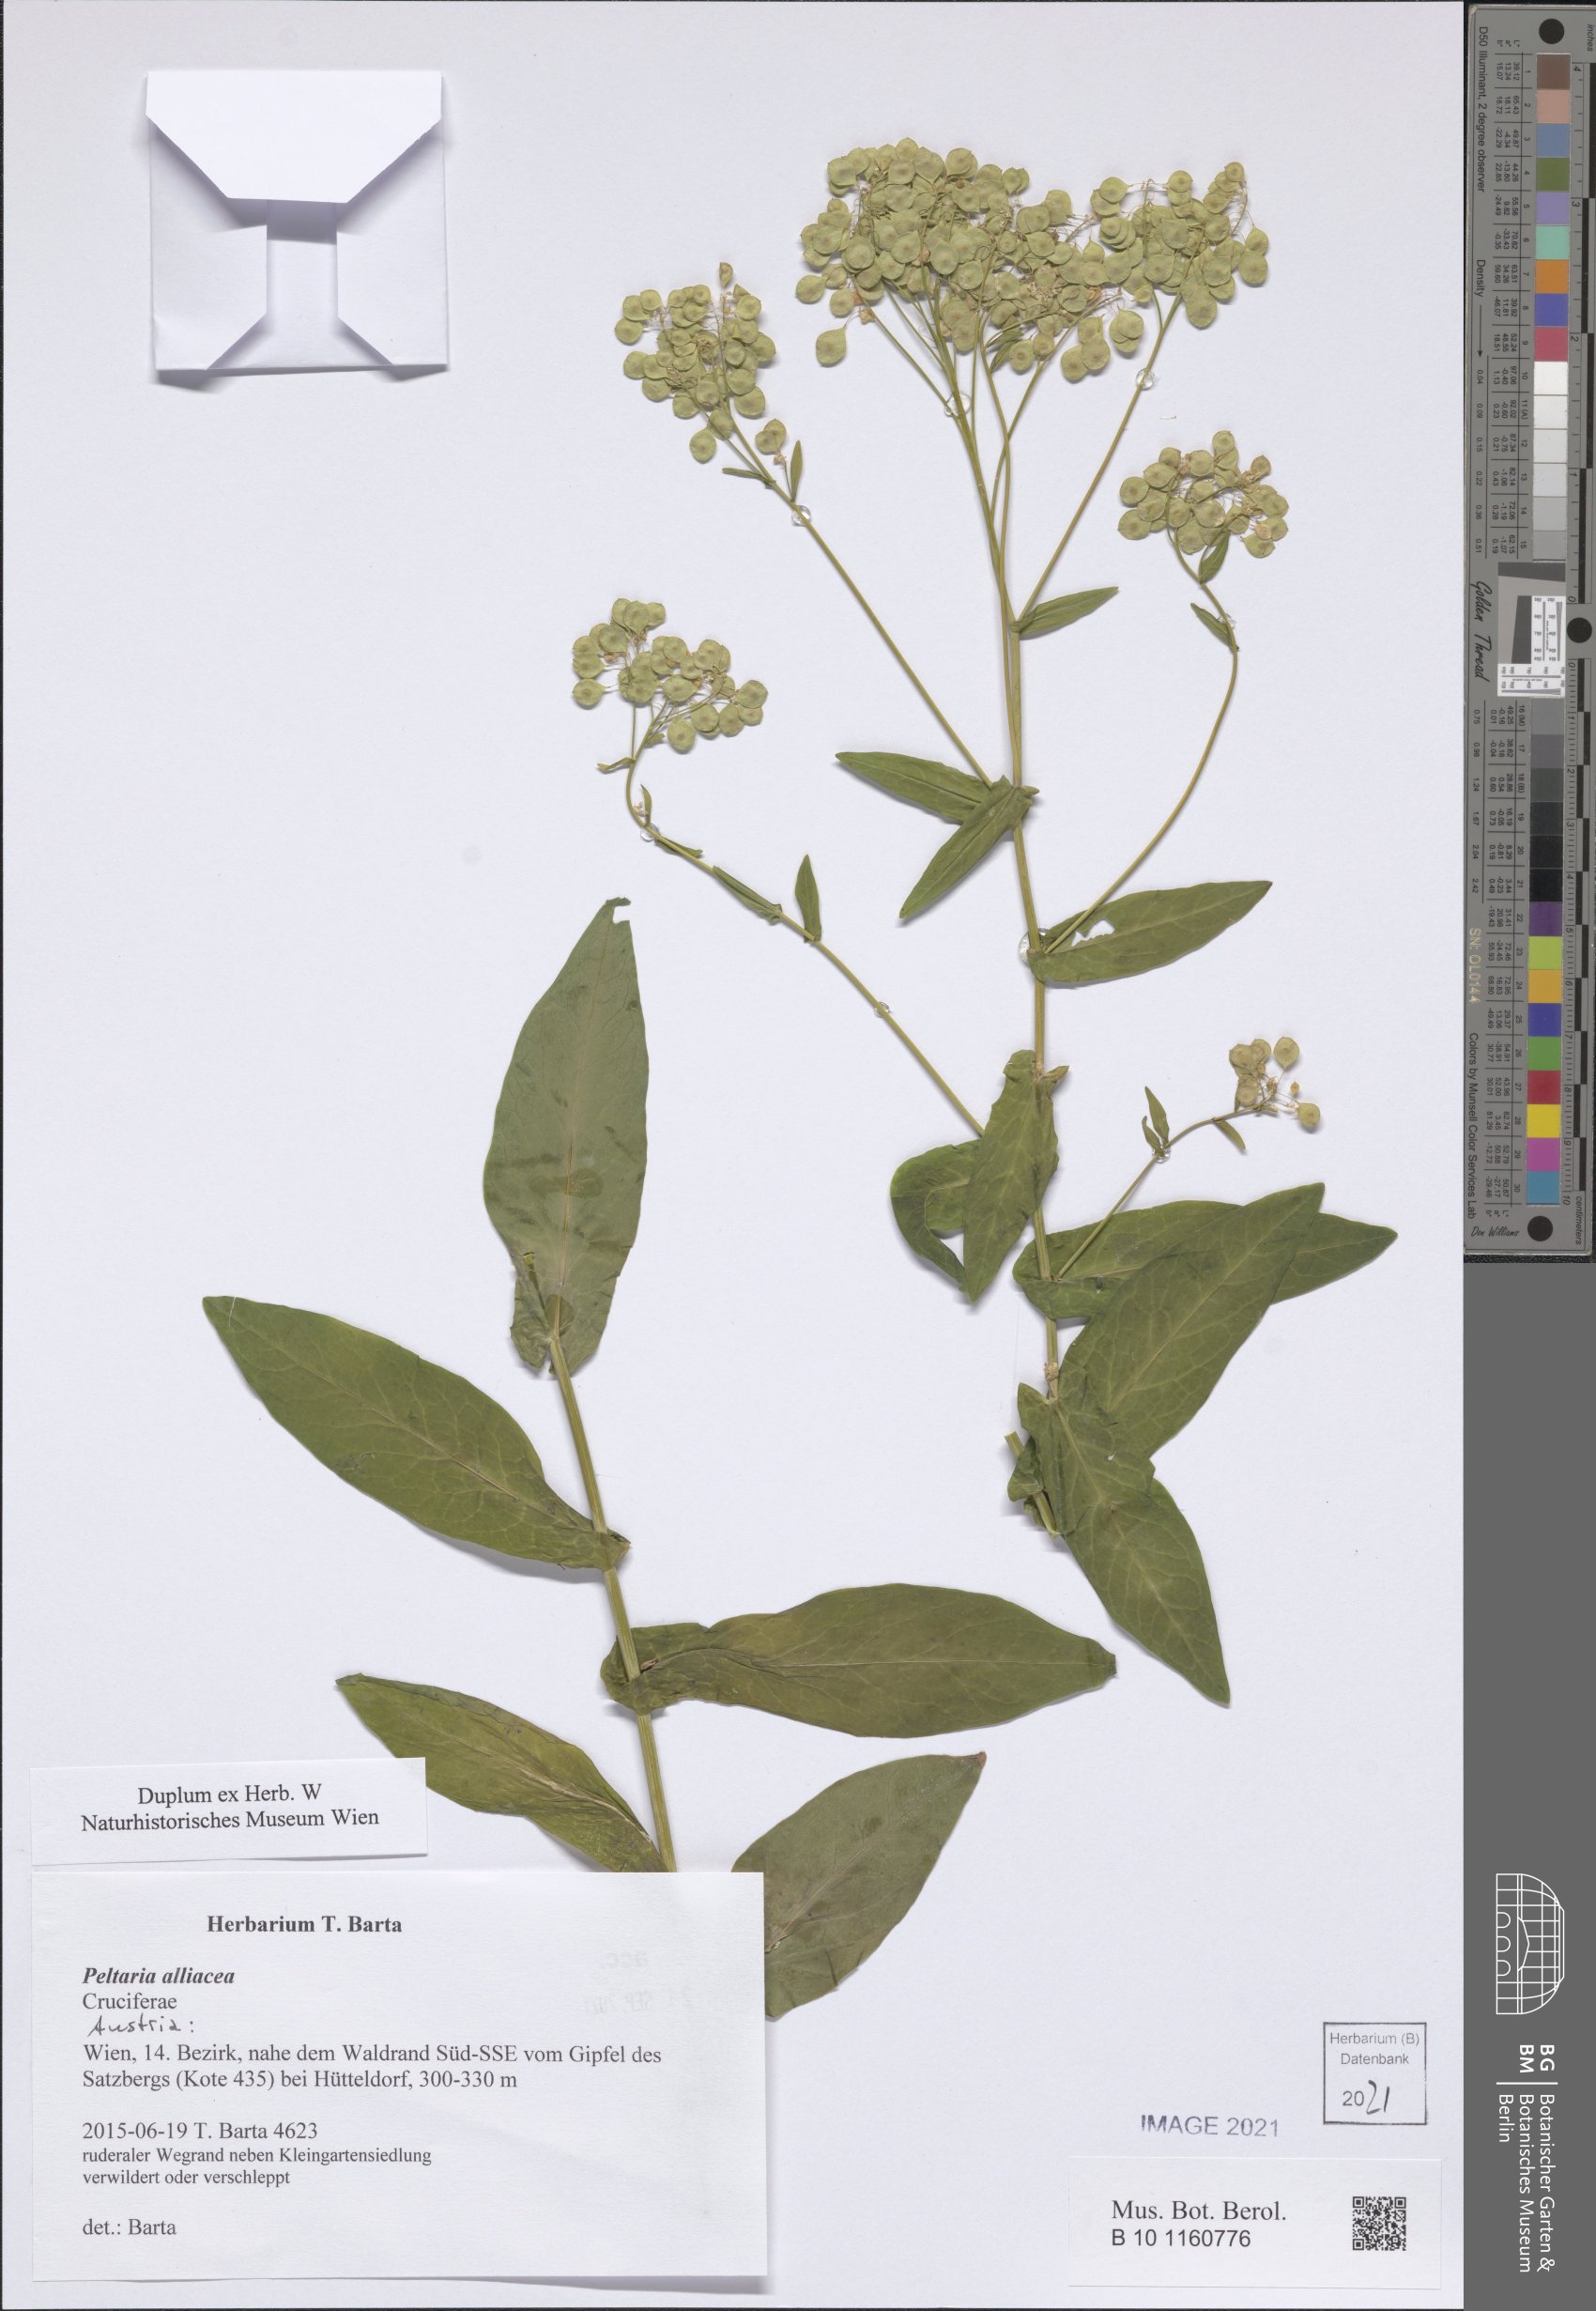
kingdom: Plantae
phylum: Tracheophyta
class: Magnoliopsida
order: Brassicales
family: Brassicaceae
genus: Peltaria
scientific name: Peltaria alliacea
